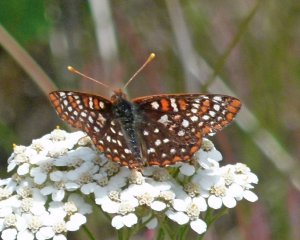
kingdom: Animalia
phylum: Arthropoda
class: Insecta
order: Lepidoptera
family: Nymphalidae
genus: Occidryas
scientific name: Occidryas chalcedona
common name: Chalcedon Checkerspot
